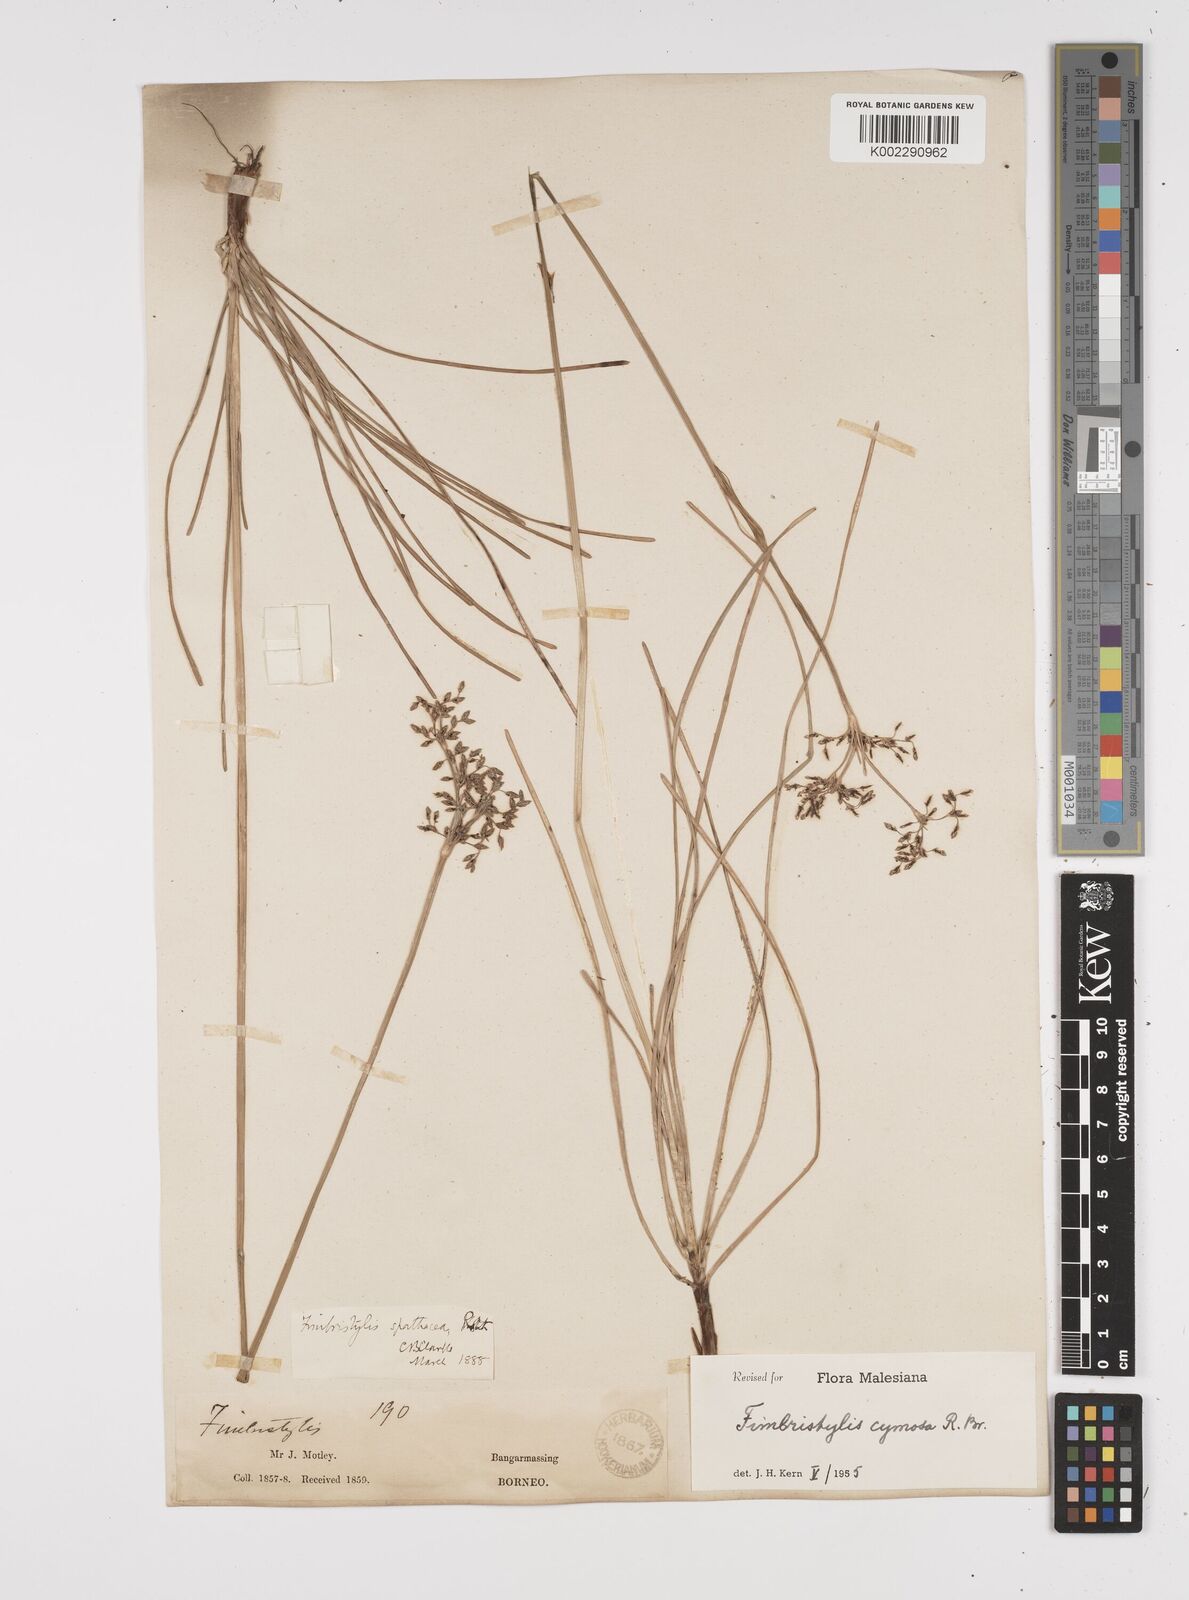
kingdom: Plantae
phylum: Tracheophyta
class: Liliopsida
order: Poales
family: Cyperaceae
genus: Fimbristylis
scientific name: Fimbristylis cymosa
